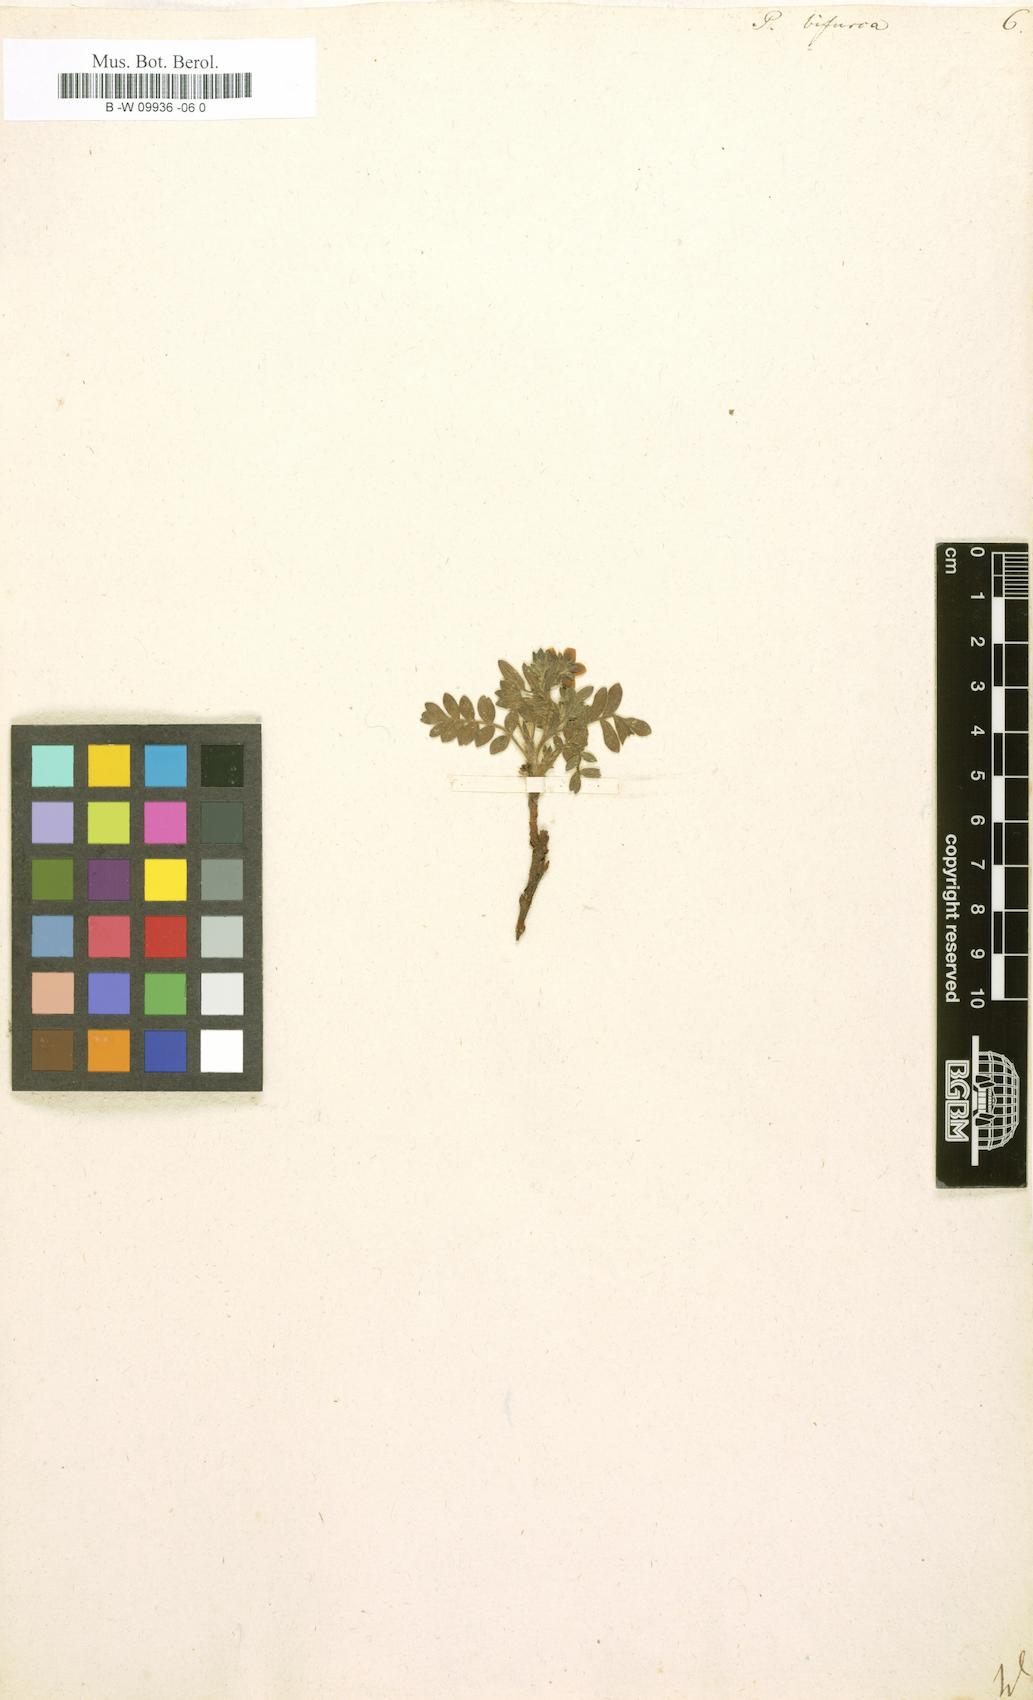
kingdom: Plantae
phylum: Tracheophyta
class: Magnoliopsida
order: Rosales
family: Rosaceae
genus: Sibbaldianthe
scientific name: Sibbaldianthe bifurca
